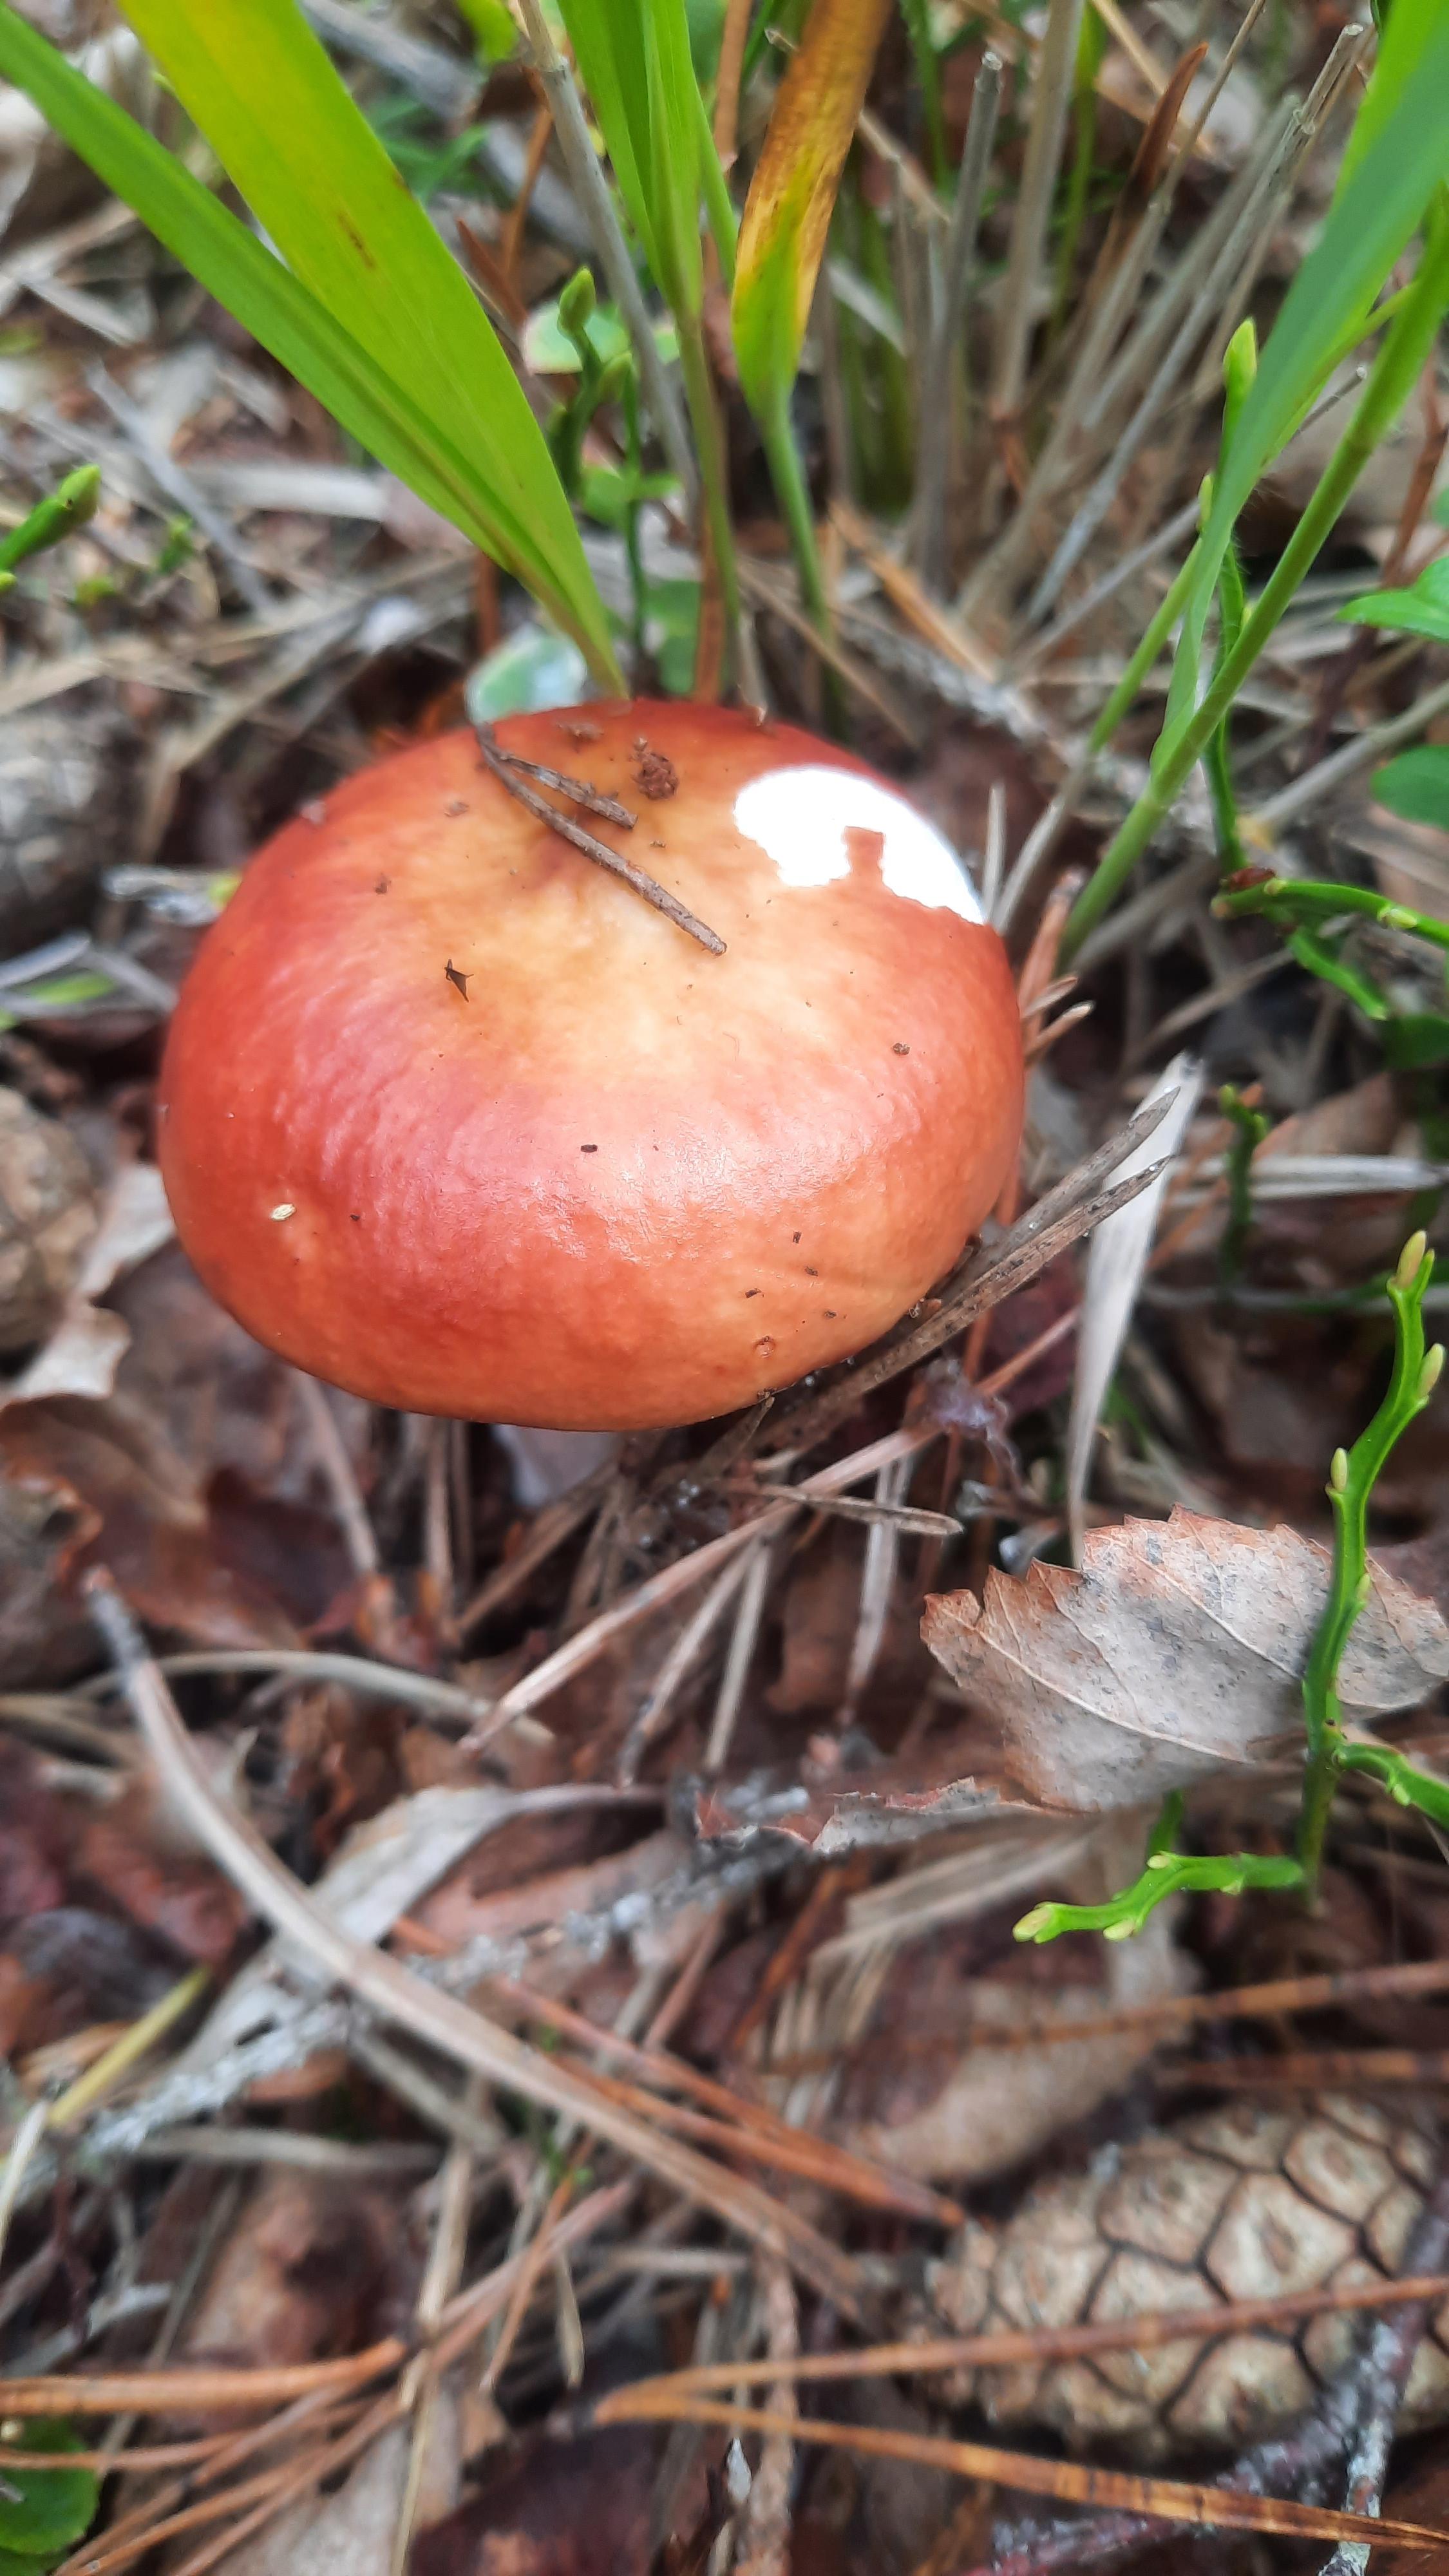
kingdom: Fungi
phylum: Basidiomycota
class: Agaricomycetes
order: Russulales
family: Russulaceae
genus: Russula
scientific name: Russula paludosa
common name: prægtig skørhat
